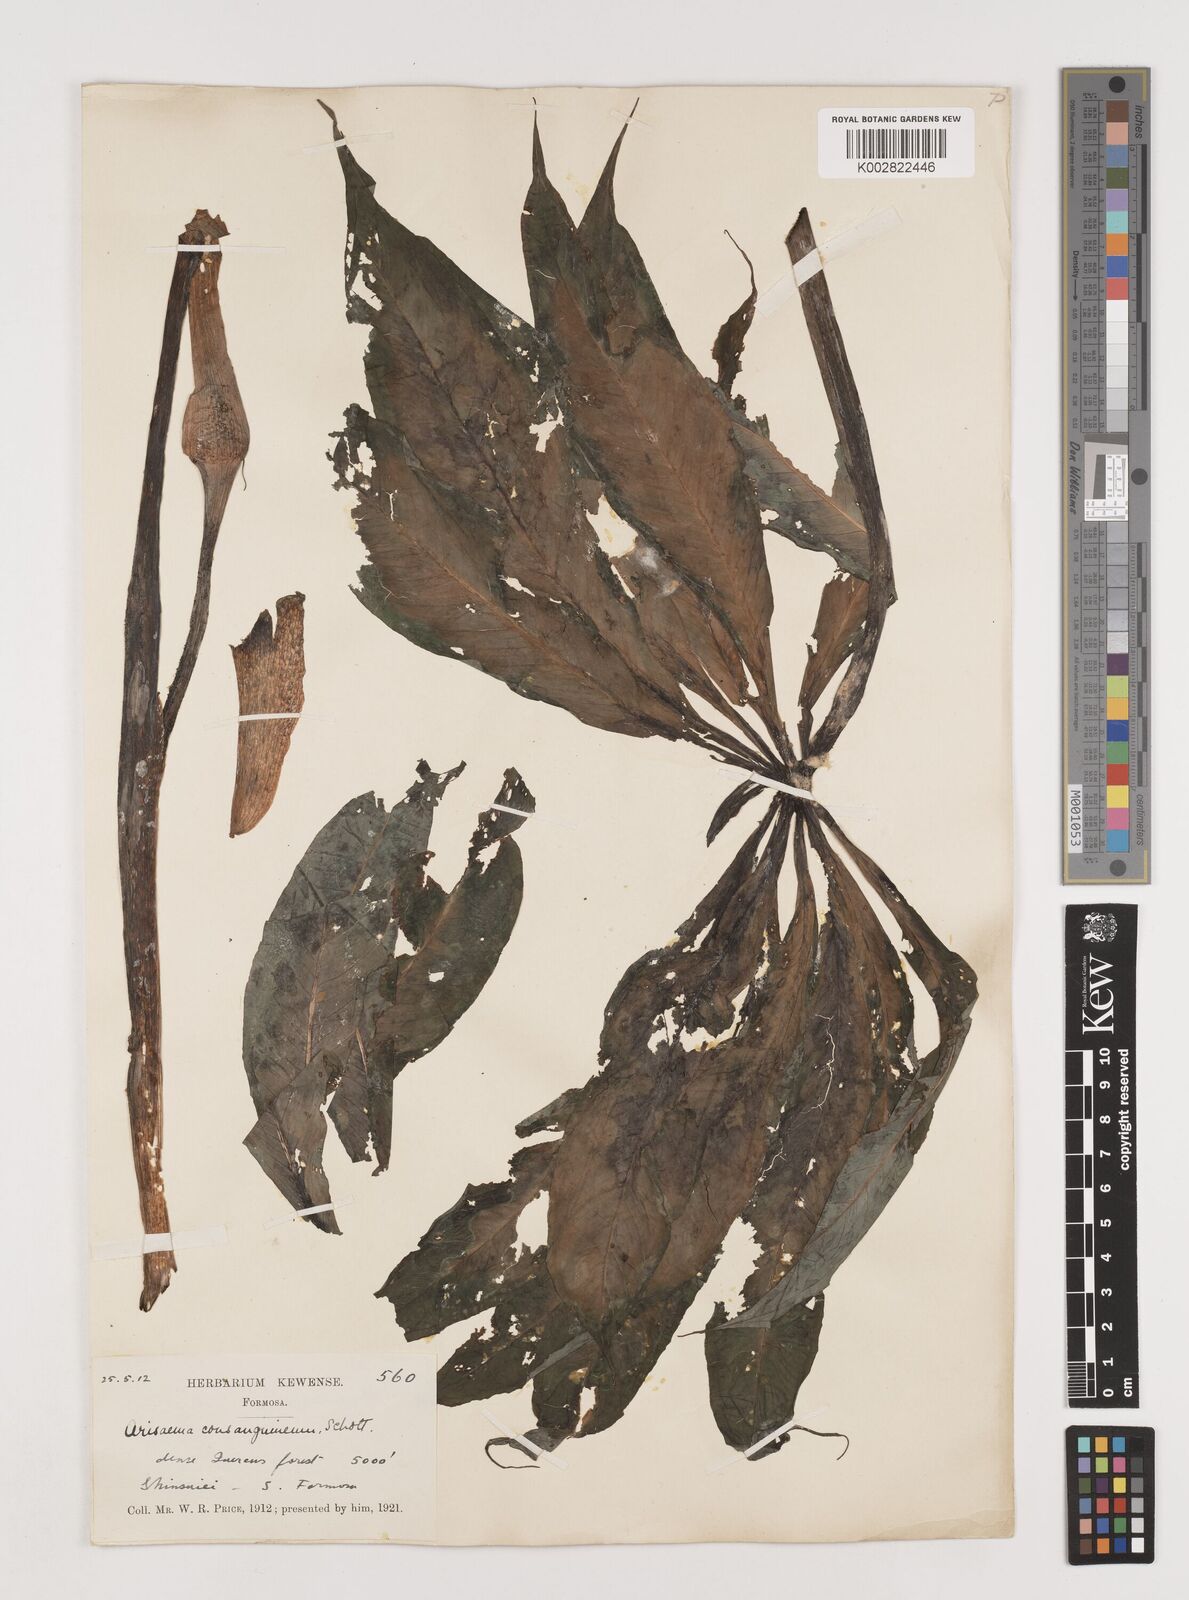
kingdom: Plantae
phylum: Tracheophyta
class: Liliopsida
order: Alismatales
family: Araceae
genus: Arisaema
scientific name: Arisaema erubescens
